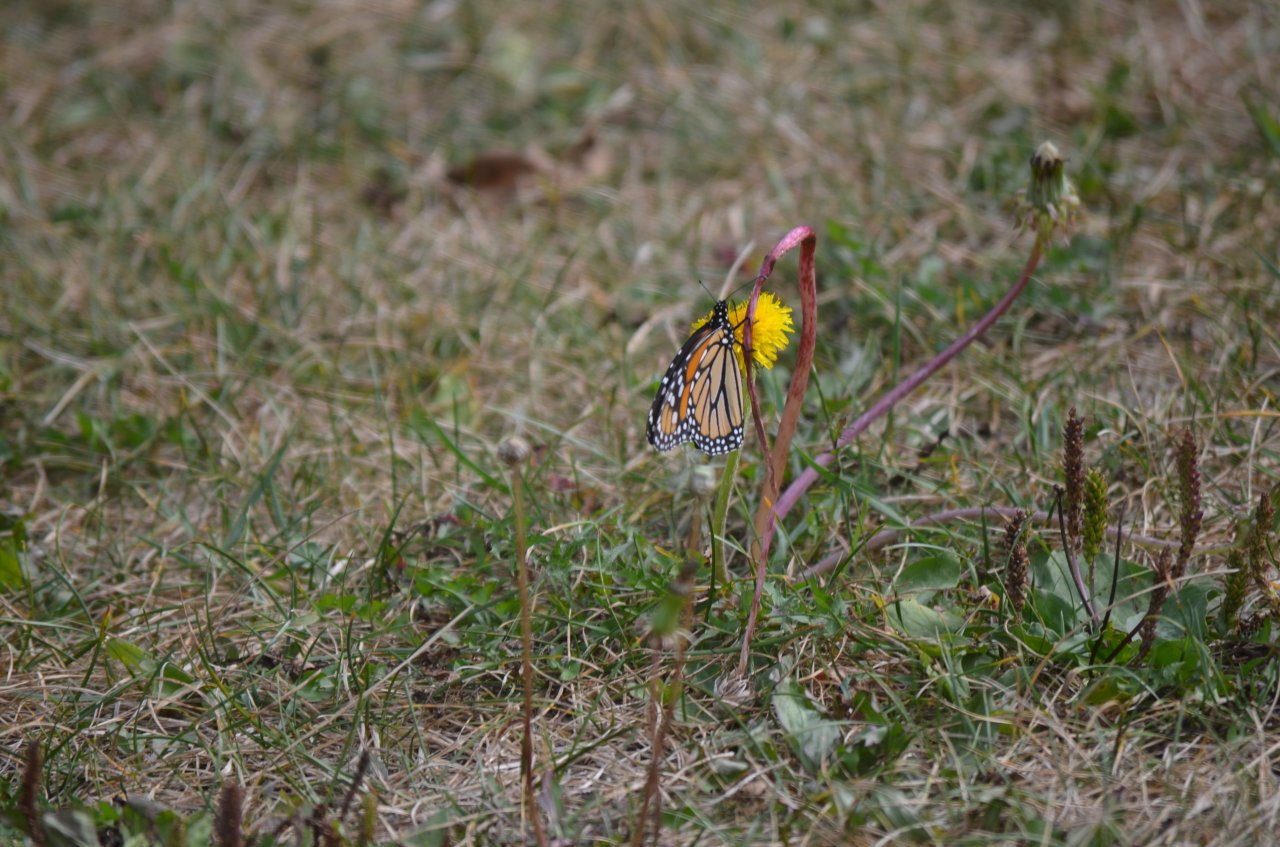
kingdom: Animalia
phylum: Arthropoda
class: Insecta
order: Lepidoptera
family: Nymphalidae
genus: Danaus
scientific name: Danaus plexippus
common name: Monarch
